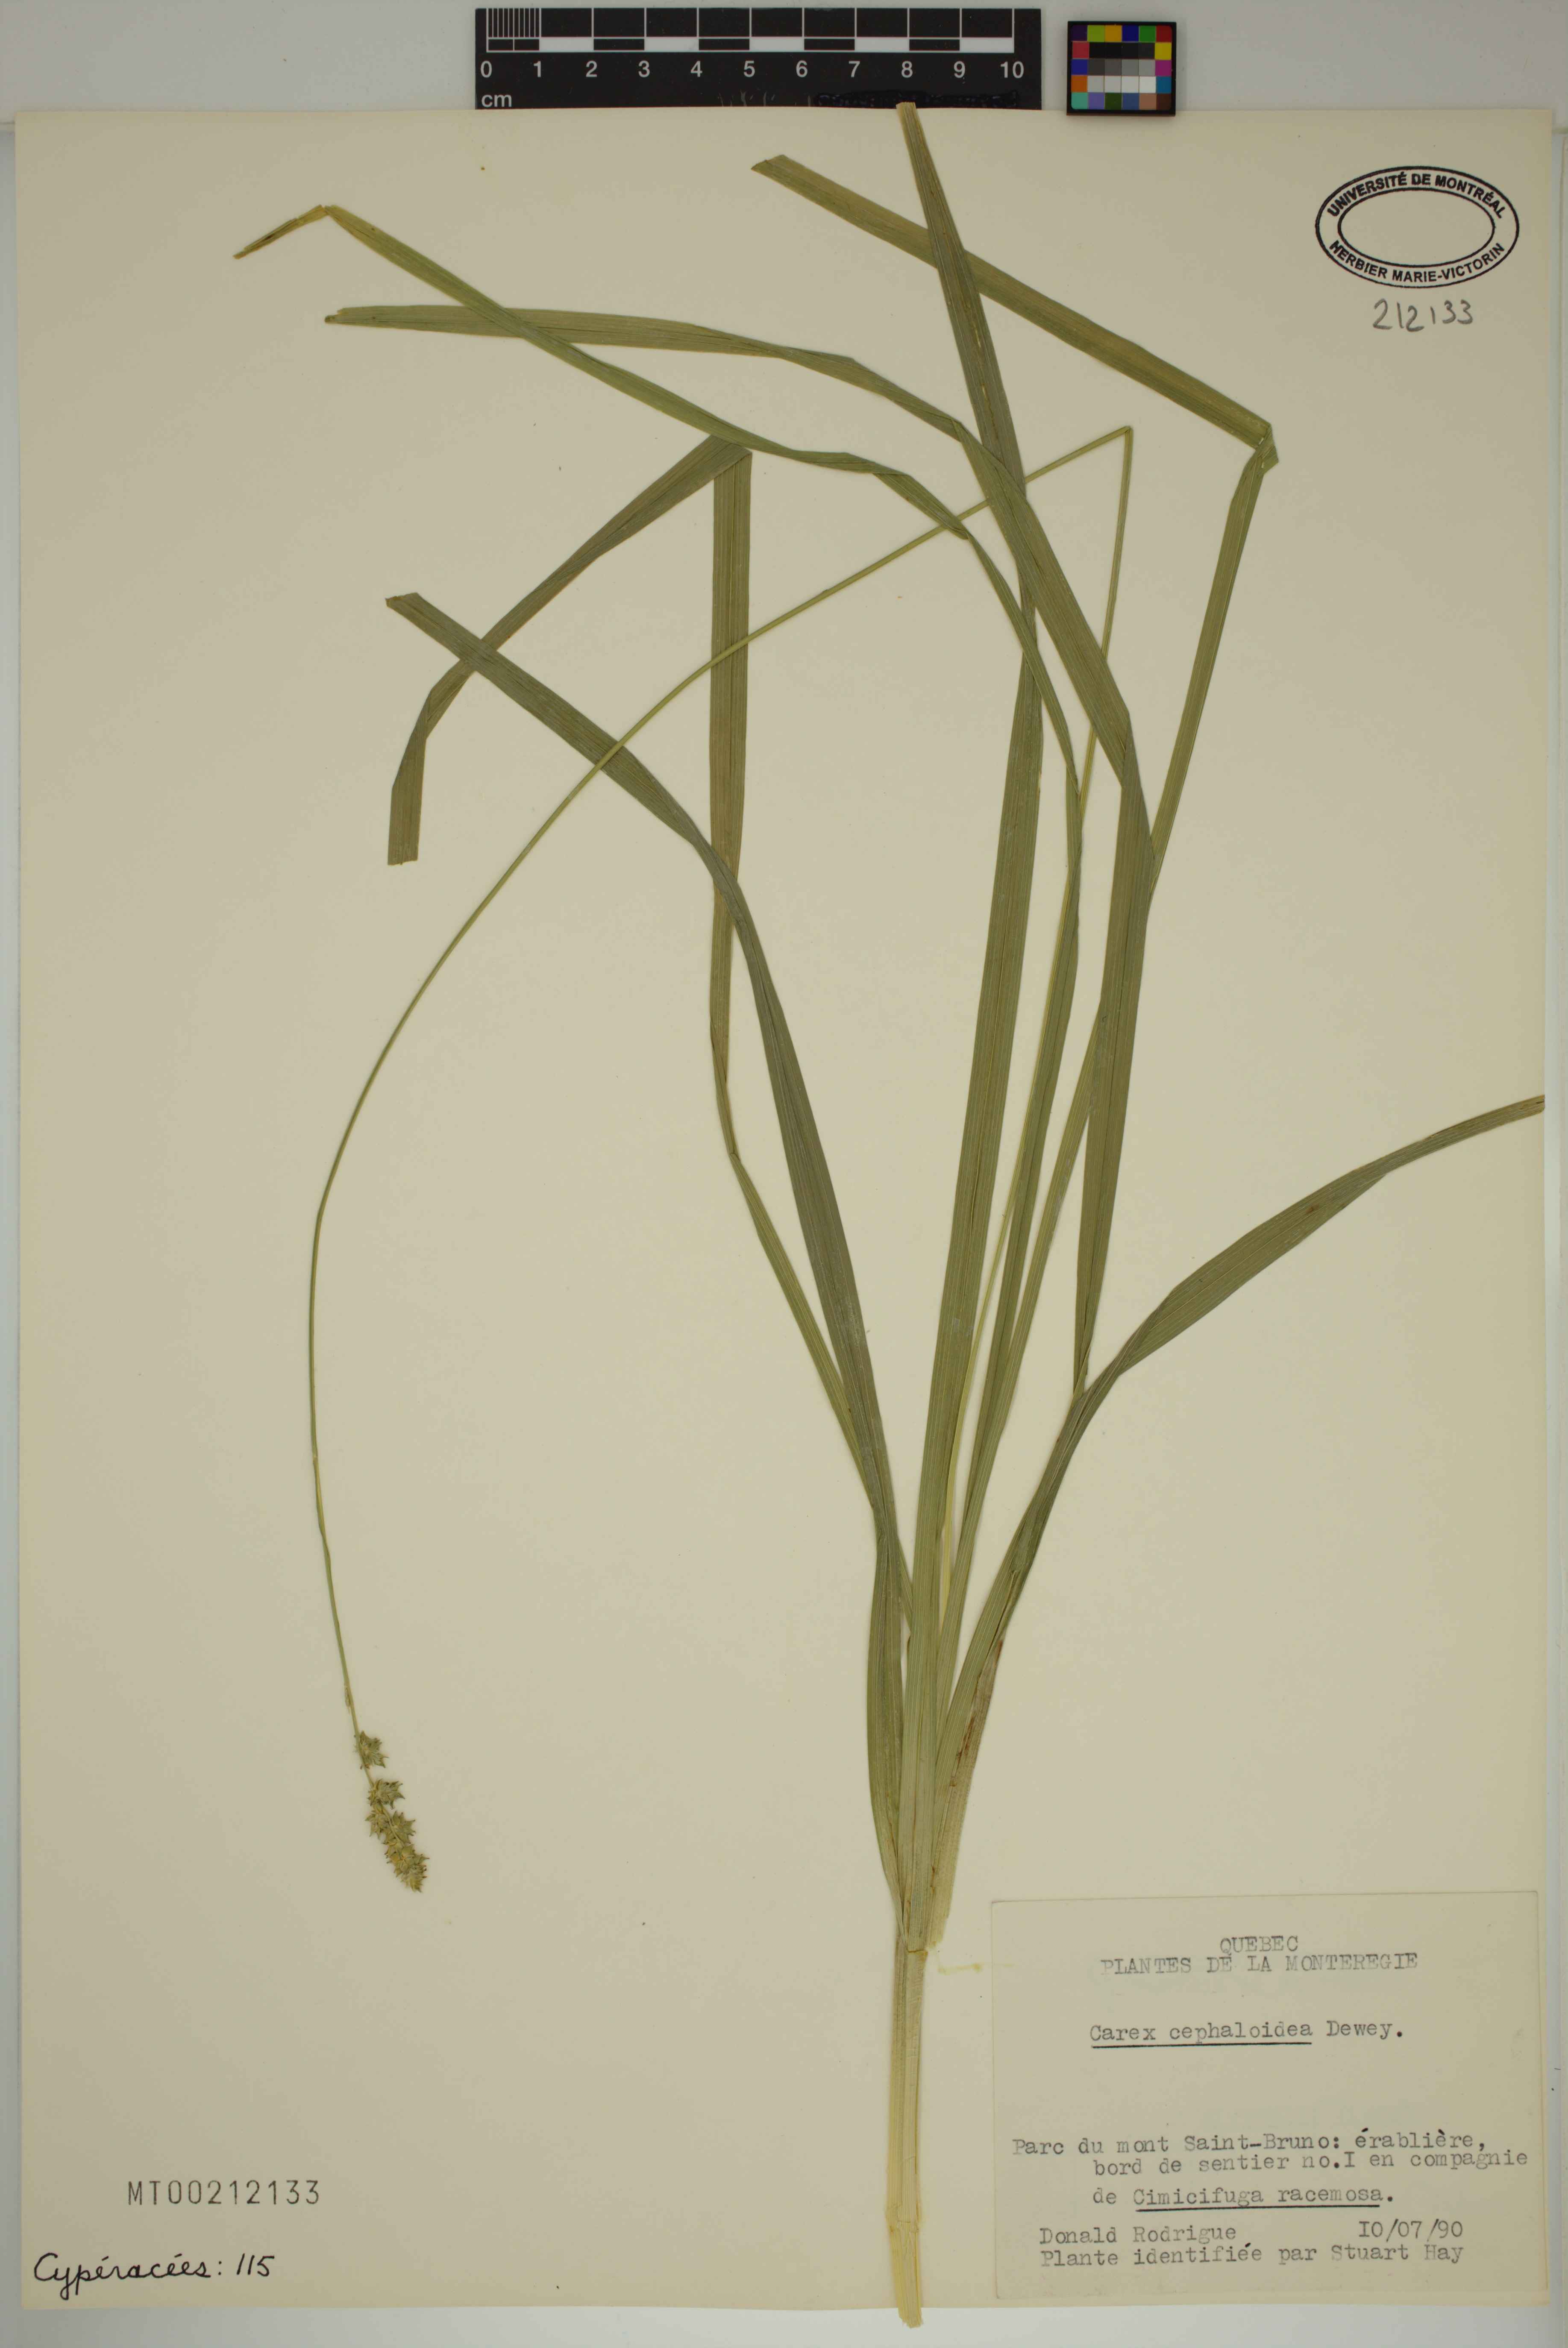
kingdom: Plantae
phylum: Tracheophyta
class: Liliopsida
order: Poales
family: Cyperaceae
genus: Carex
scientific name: Carex cephaloidea
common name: Thin-leaved sedge
